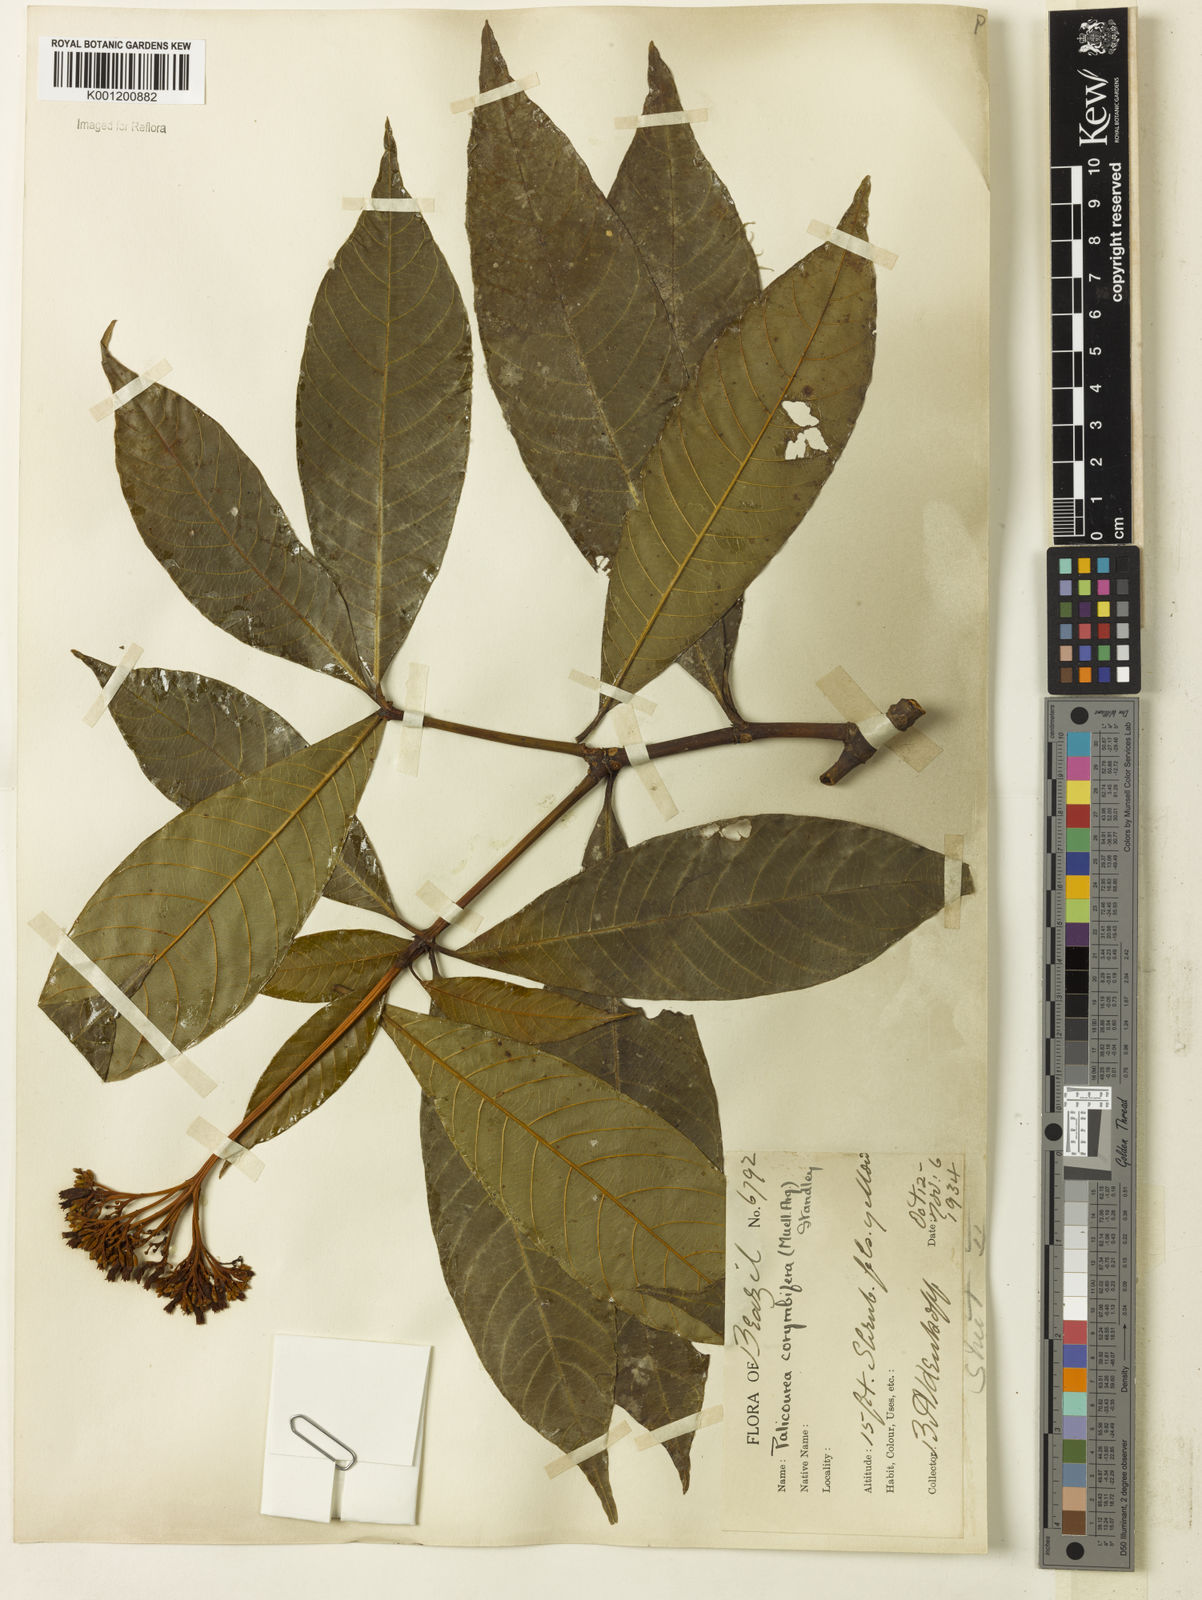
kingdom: Plantae
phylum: Tracheophyta
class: Magnoliopsida
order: Gentianales
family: Rubiaceae
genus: Palicourea
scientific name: Palicourea
